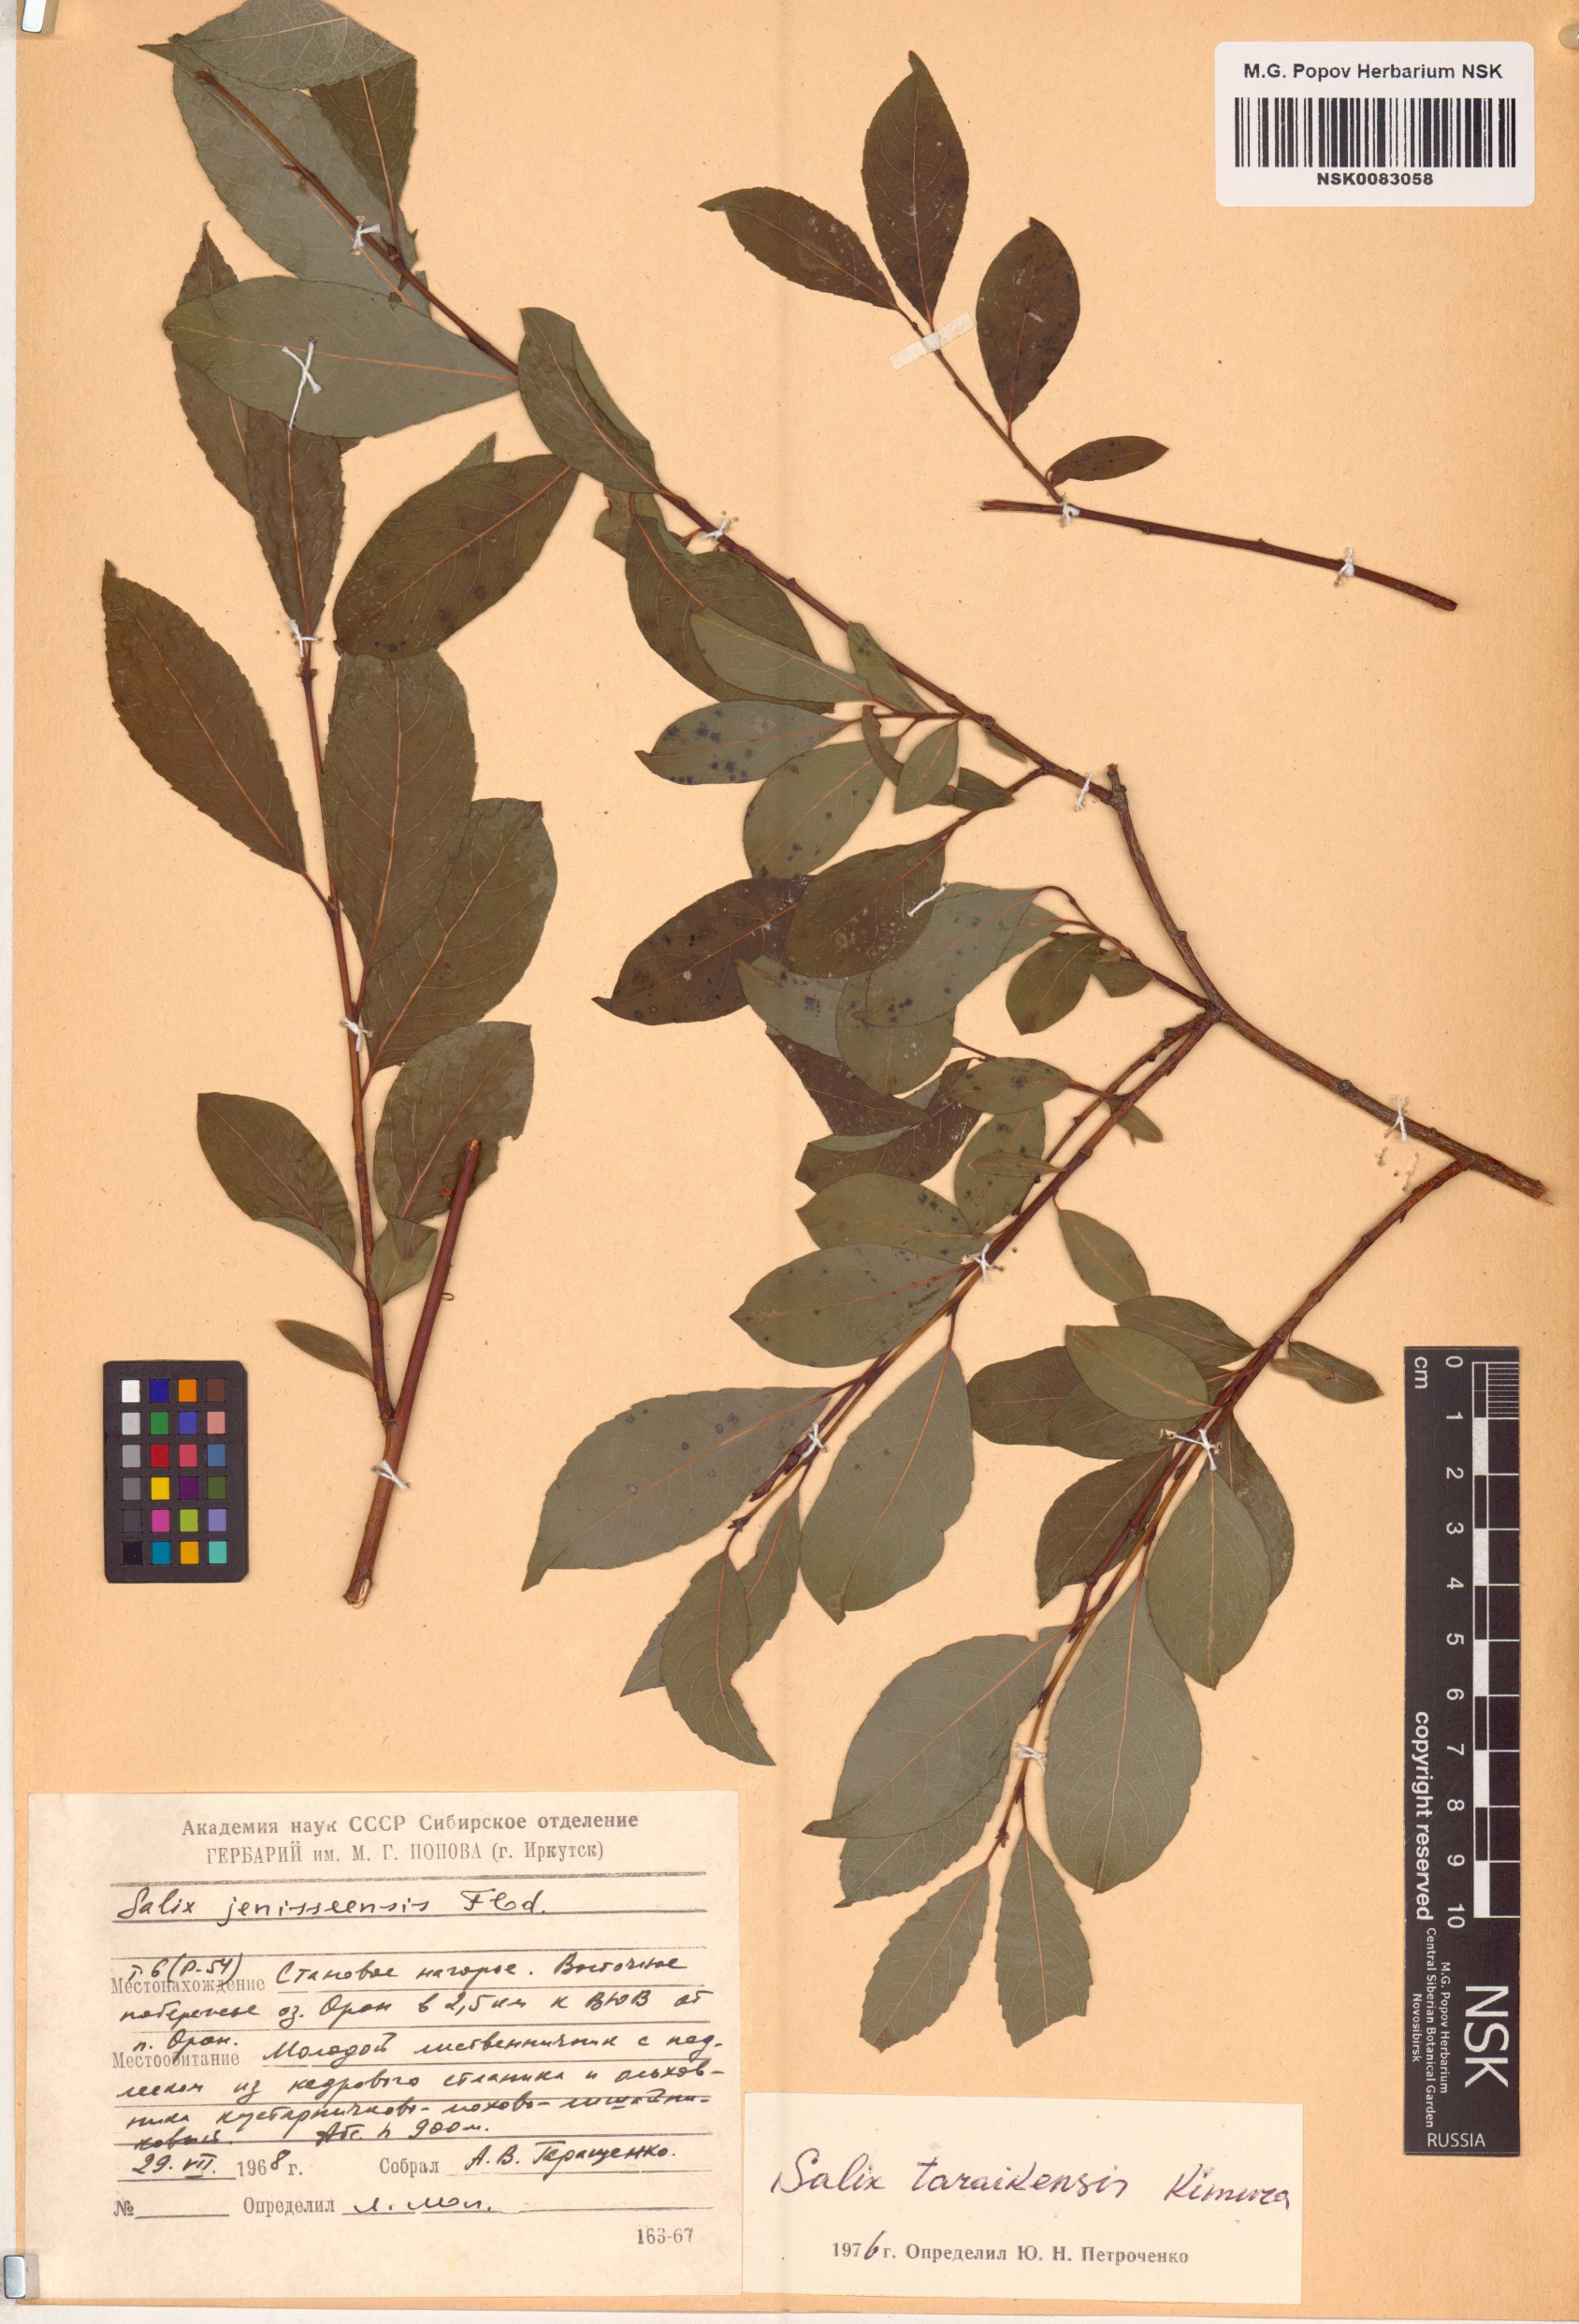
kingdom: Plantae
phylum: Tracheophyta
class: Magnoliopsida
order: Malpighiales
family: Salicaceae
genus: Salix
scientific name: Salix taraikensis
